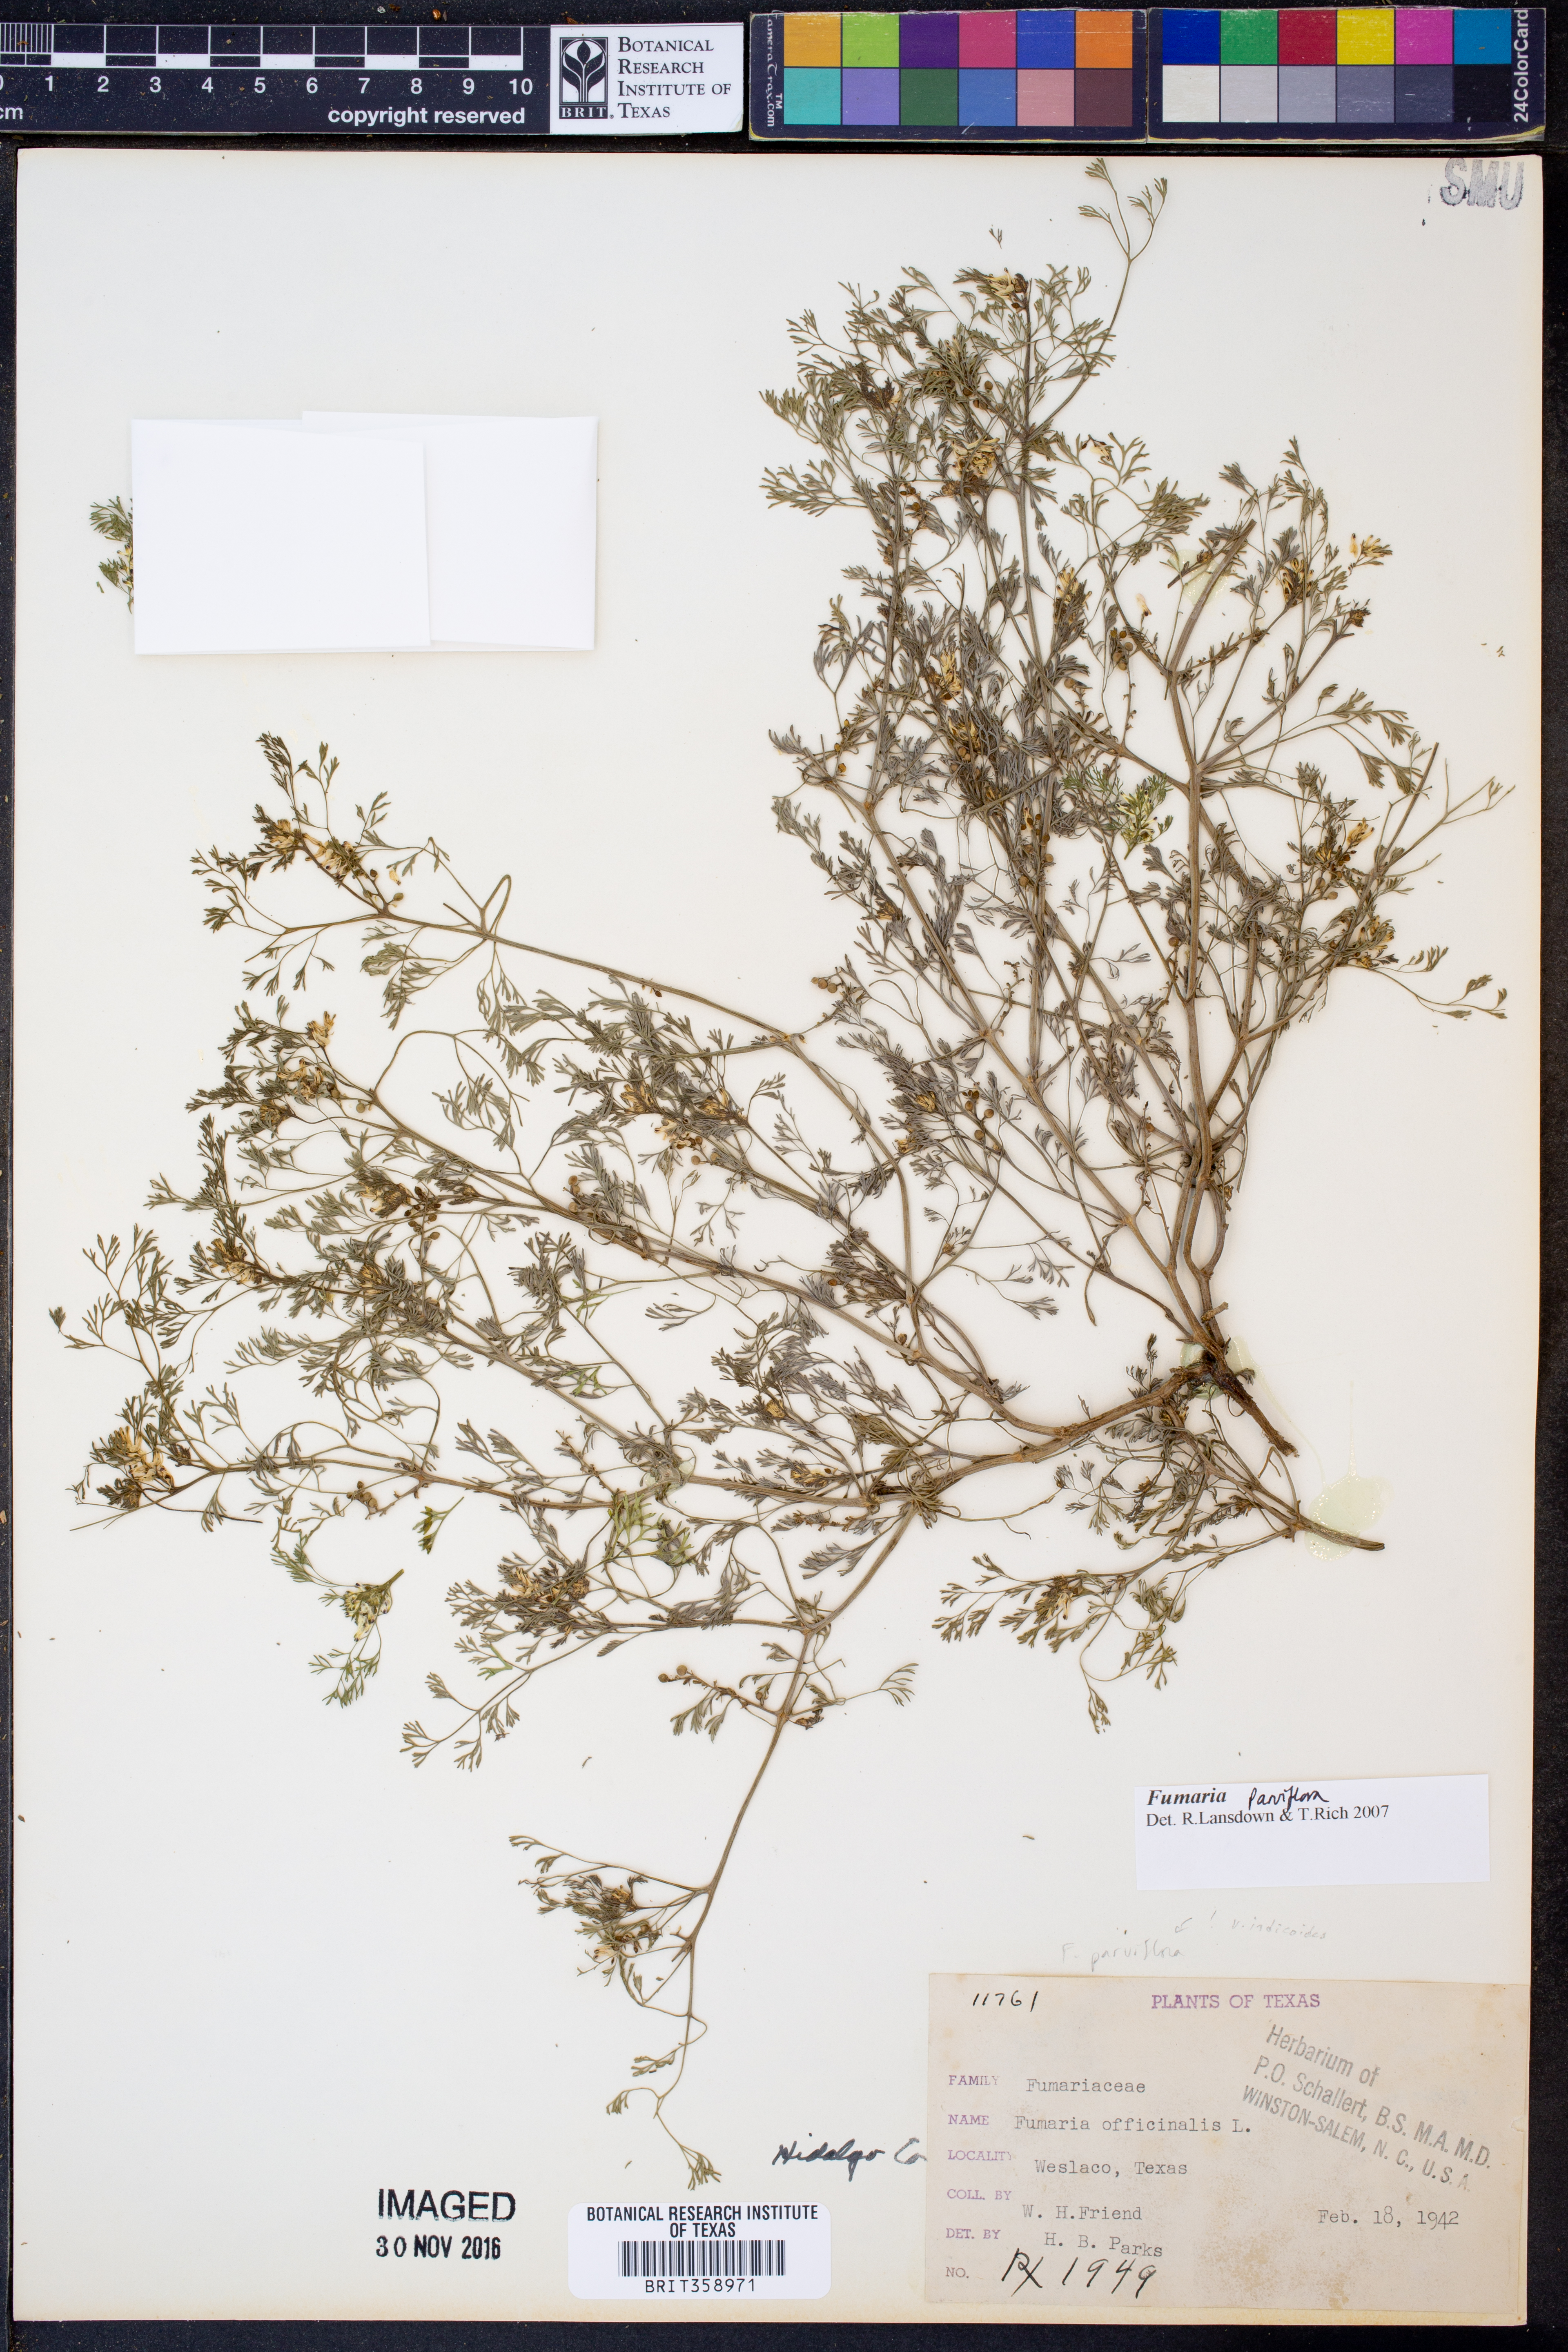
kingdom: Plantae
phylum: Tracheophyta
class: Magnoliopsida
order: Ranunculales
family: Papaveraceae
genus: Fumaria
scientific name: Fumaria parviflora
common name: Fine-leaved fumitory
